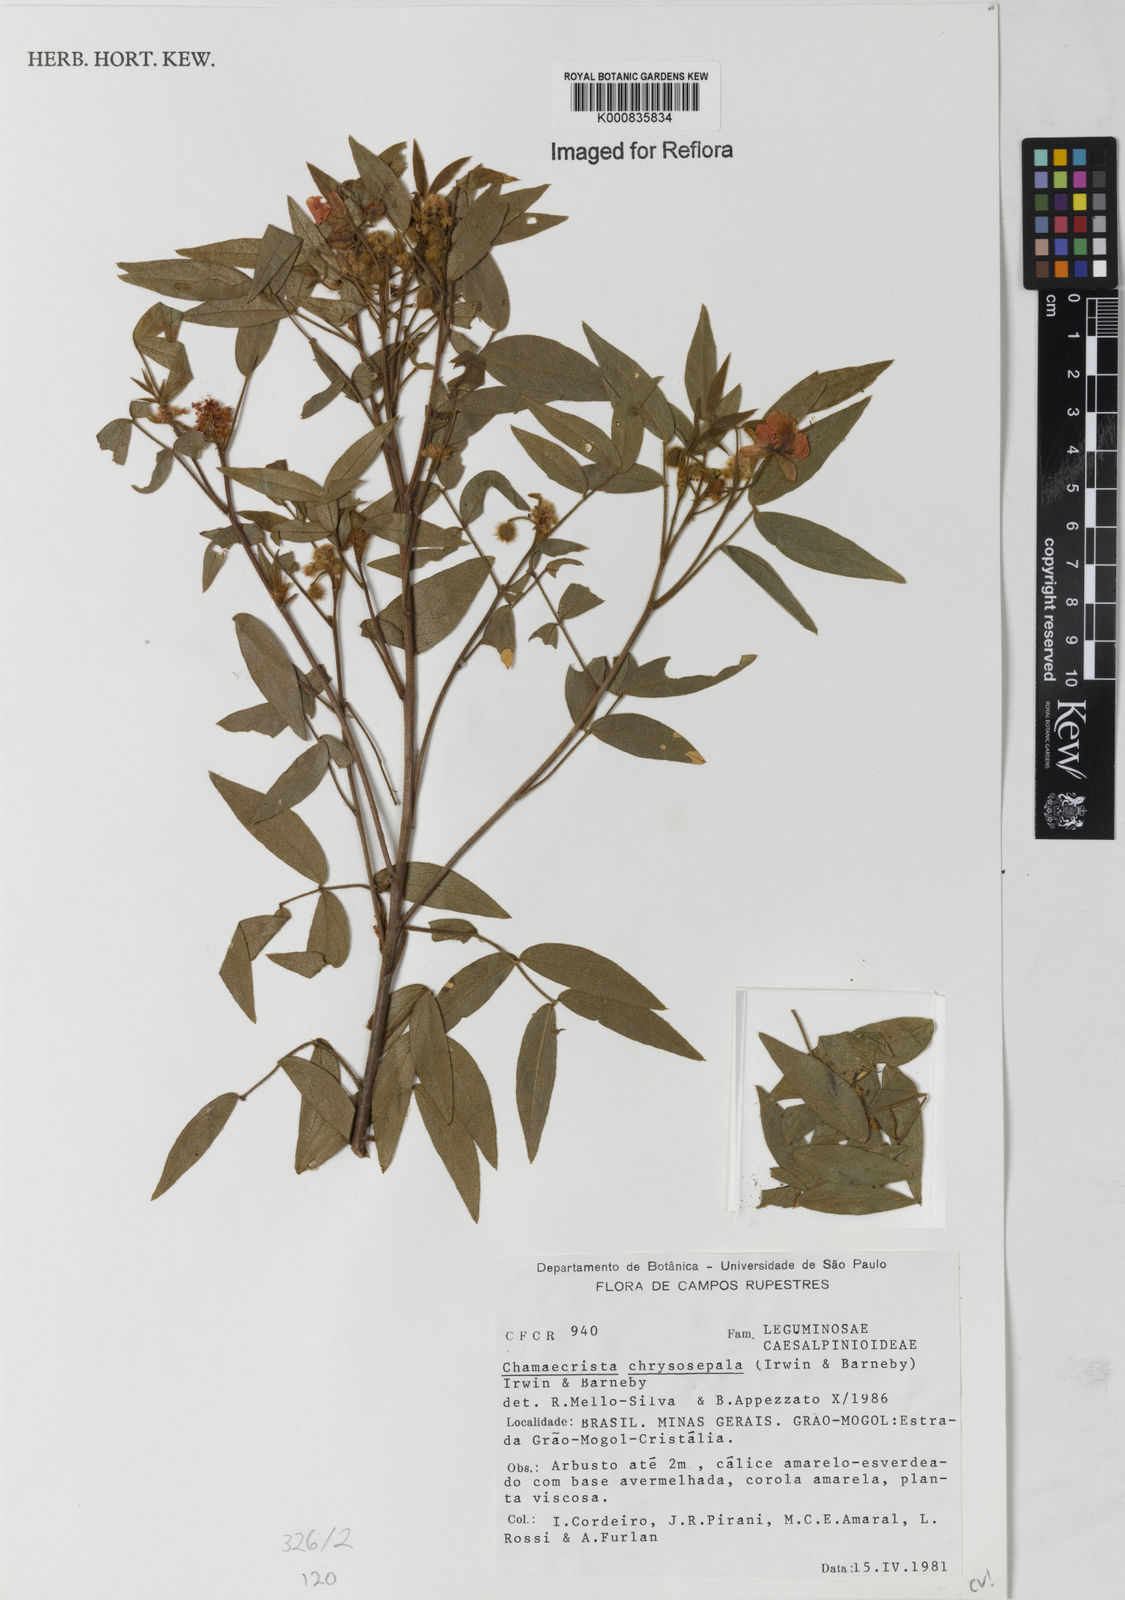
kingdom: Plantae
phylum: Tracheophyta
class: Magnoliopsida
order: Fabales
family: Fabaceae
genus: Chamaecrista
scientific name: Chamaecrista chrysosepala
